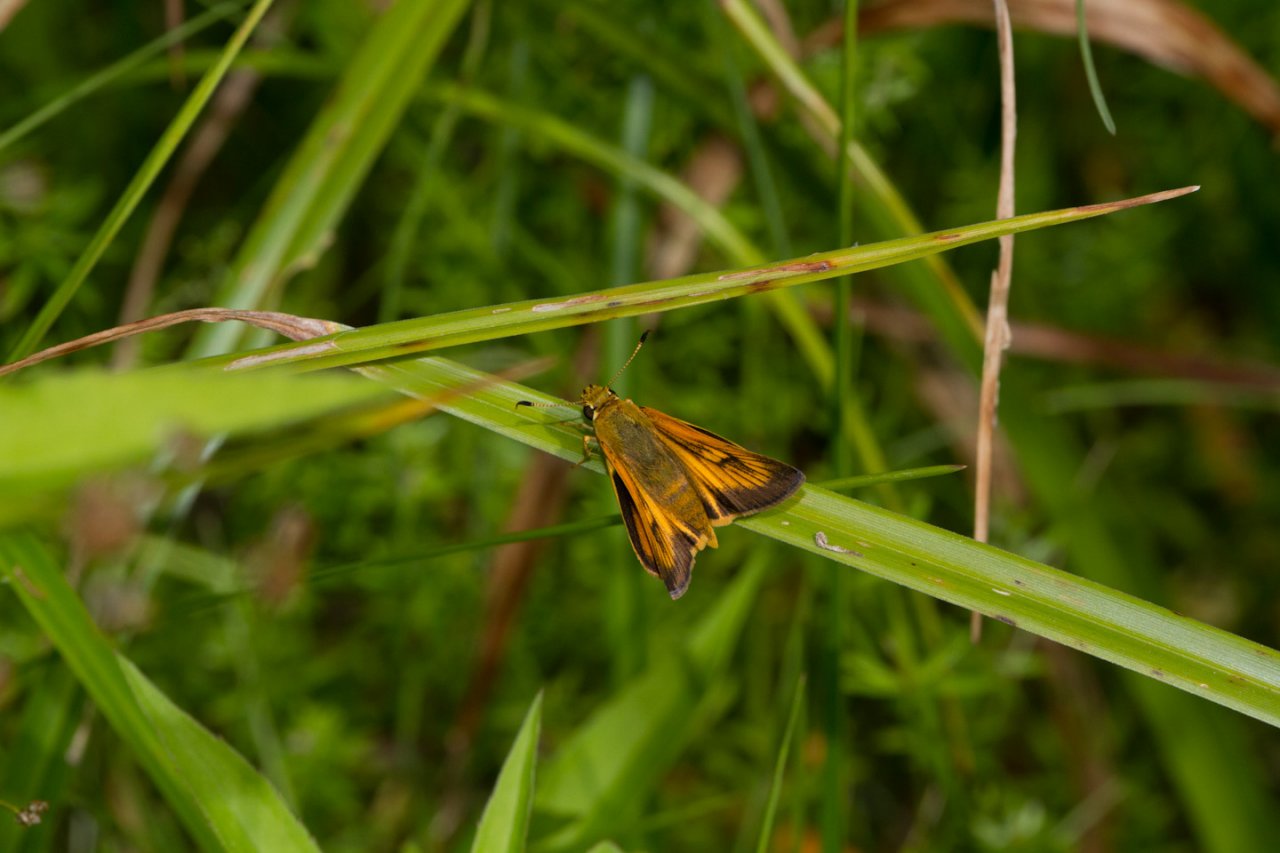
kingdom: Animalia
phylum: Arthropoda
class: Insecta
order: Lepidoptera
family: Hesperiidae
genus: Atrytone
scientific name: Atrytone delaware
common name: Delaware Skipper
